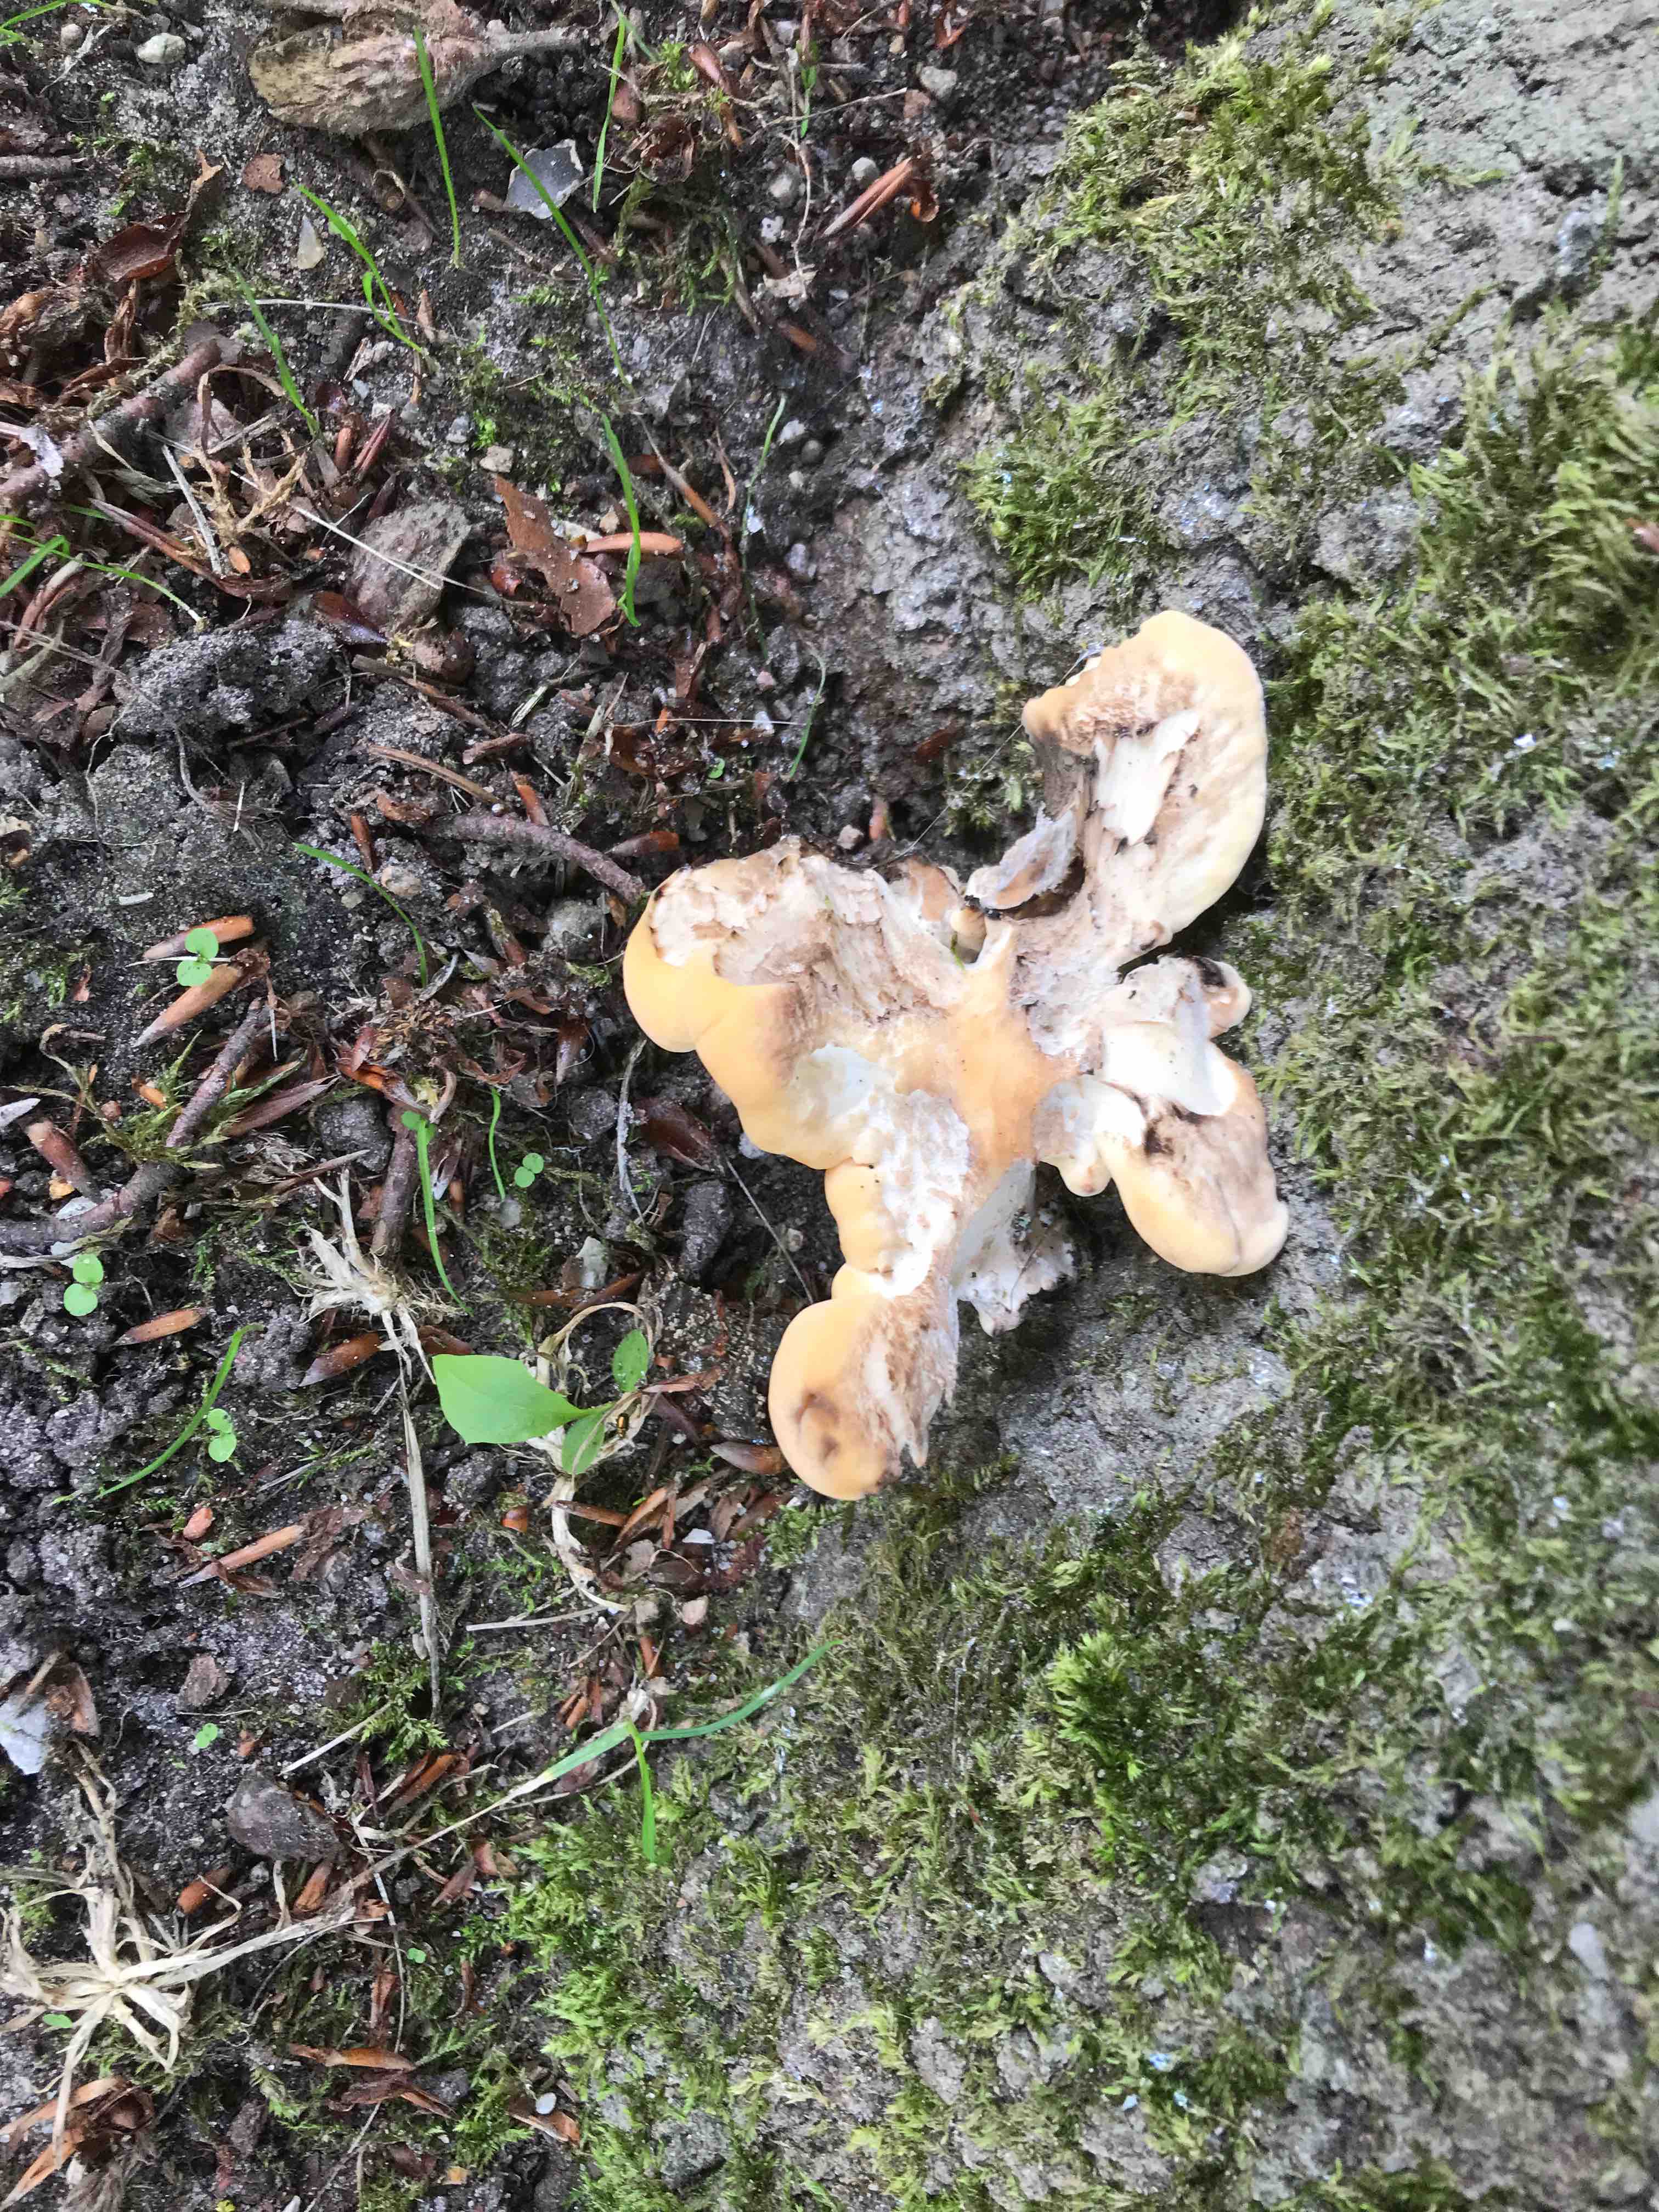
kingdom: Fungi
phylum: Basidiomycota
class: Agaricomycetes
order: Polyporales
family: Meripilaceae
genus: Meripilus
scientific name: Meripilus giganteus
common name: kæmpeporesvamp
